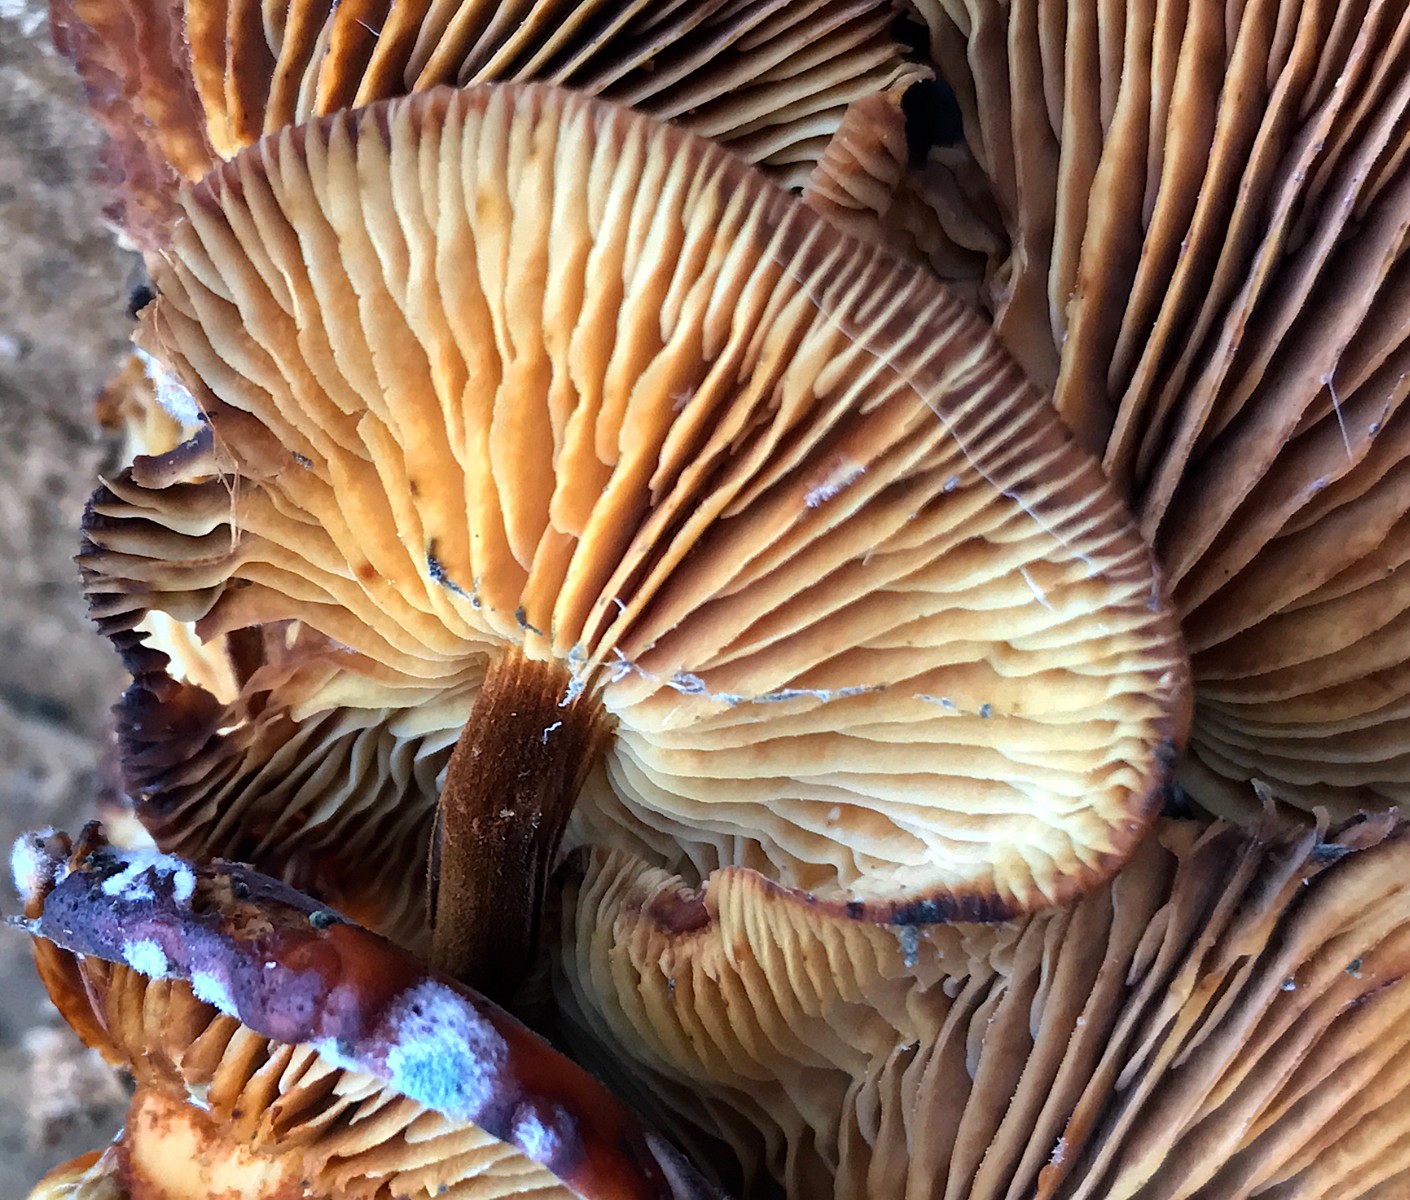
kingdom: Fungi
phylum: Basidiomycota
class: Agaricomycetes
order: Agaricales
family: Physalacriaceae
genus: Flammulina
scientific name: Flammulina velutipes
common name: gul fløjlsfod
